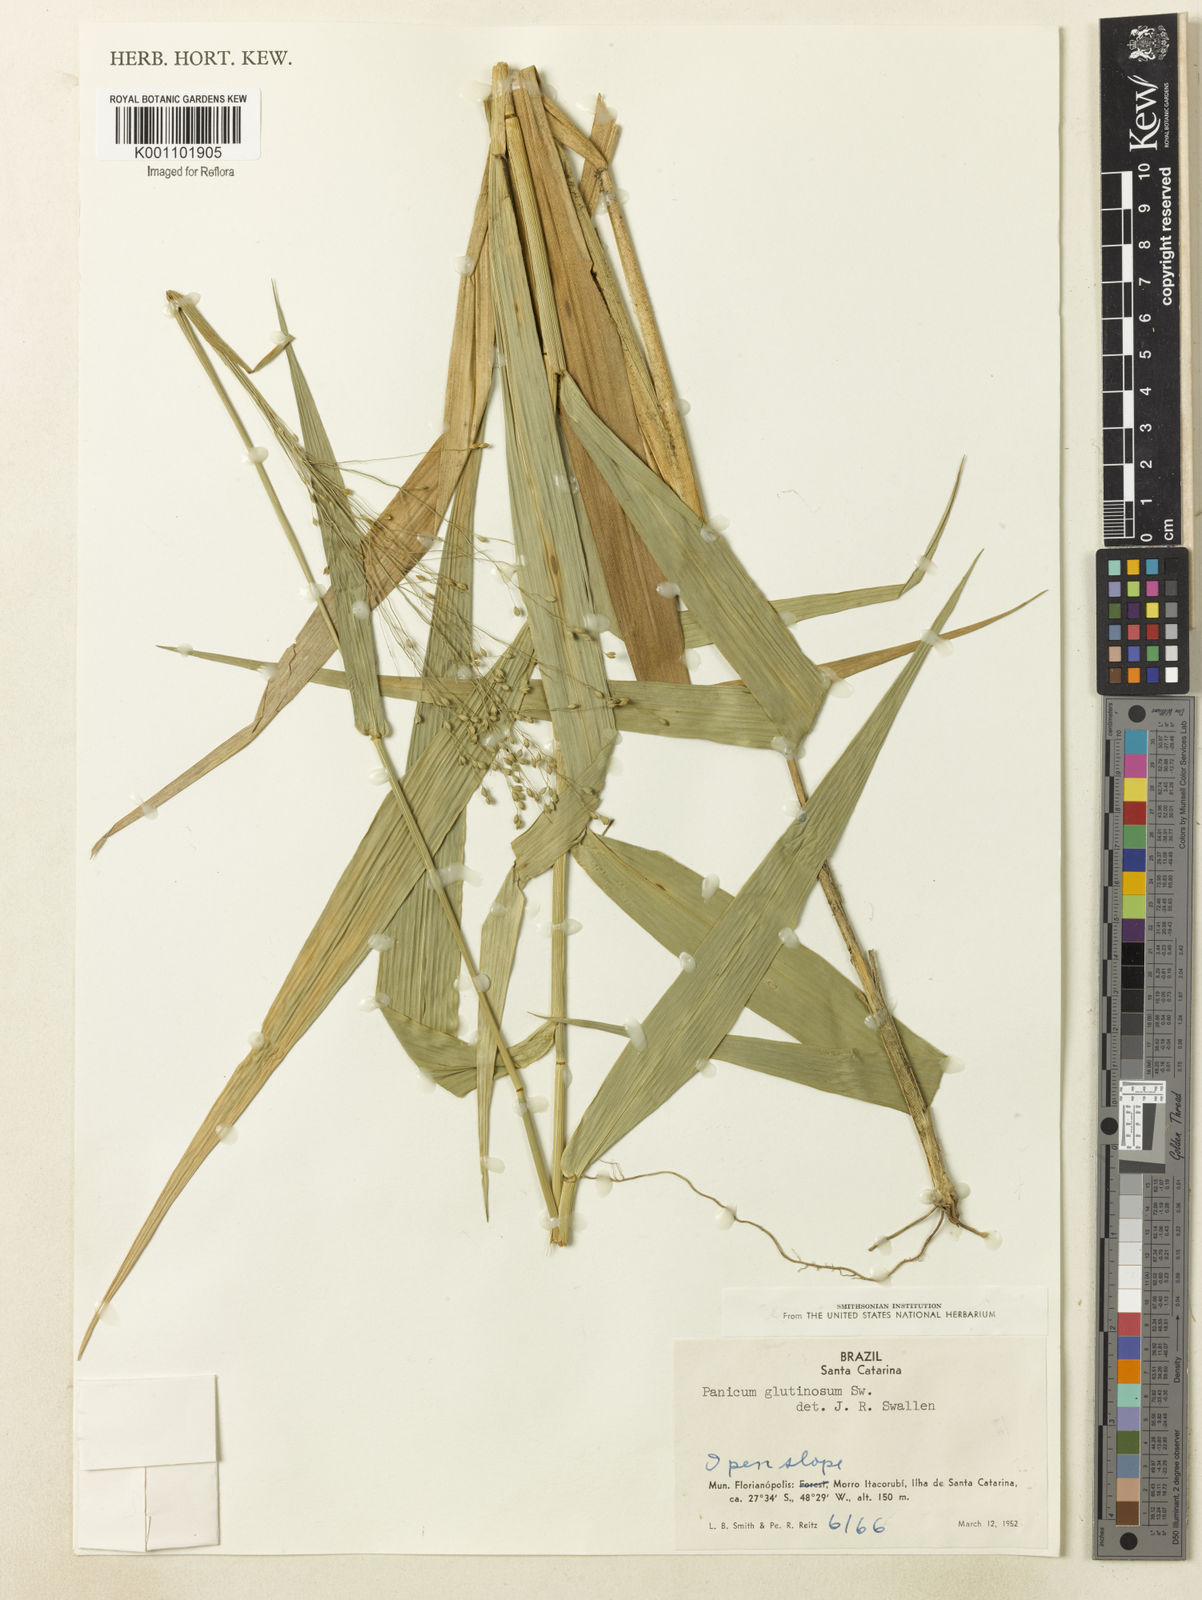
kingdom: Plantae
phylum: Tracheophyta
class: Liliopsida
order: Poales
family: Poaceae
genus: Homolepis
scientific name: Homolepis glutinosa
